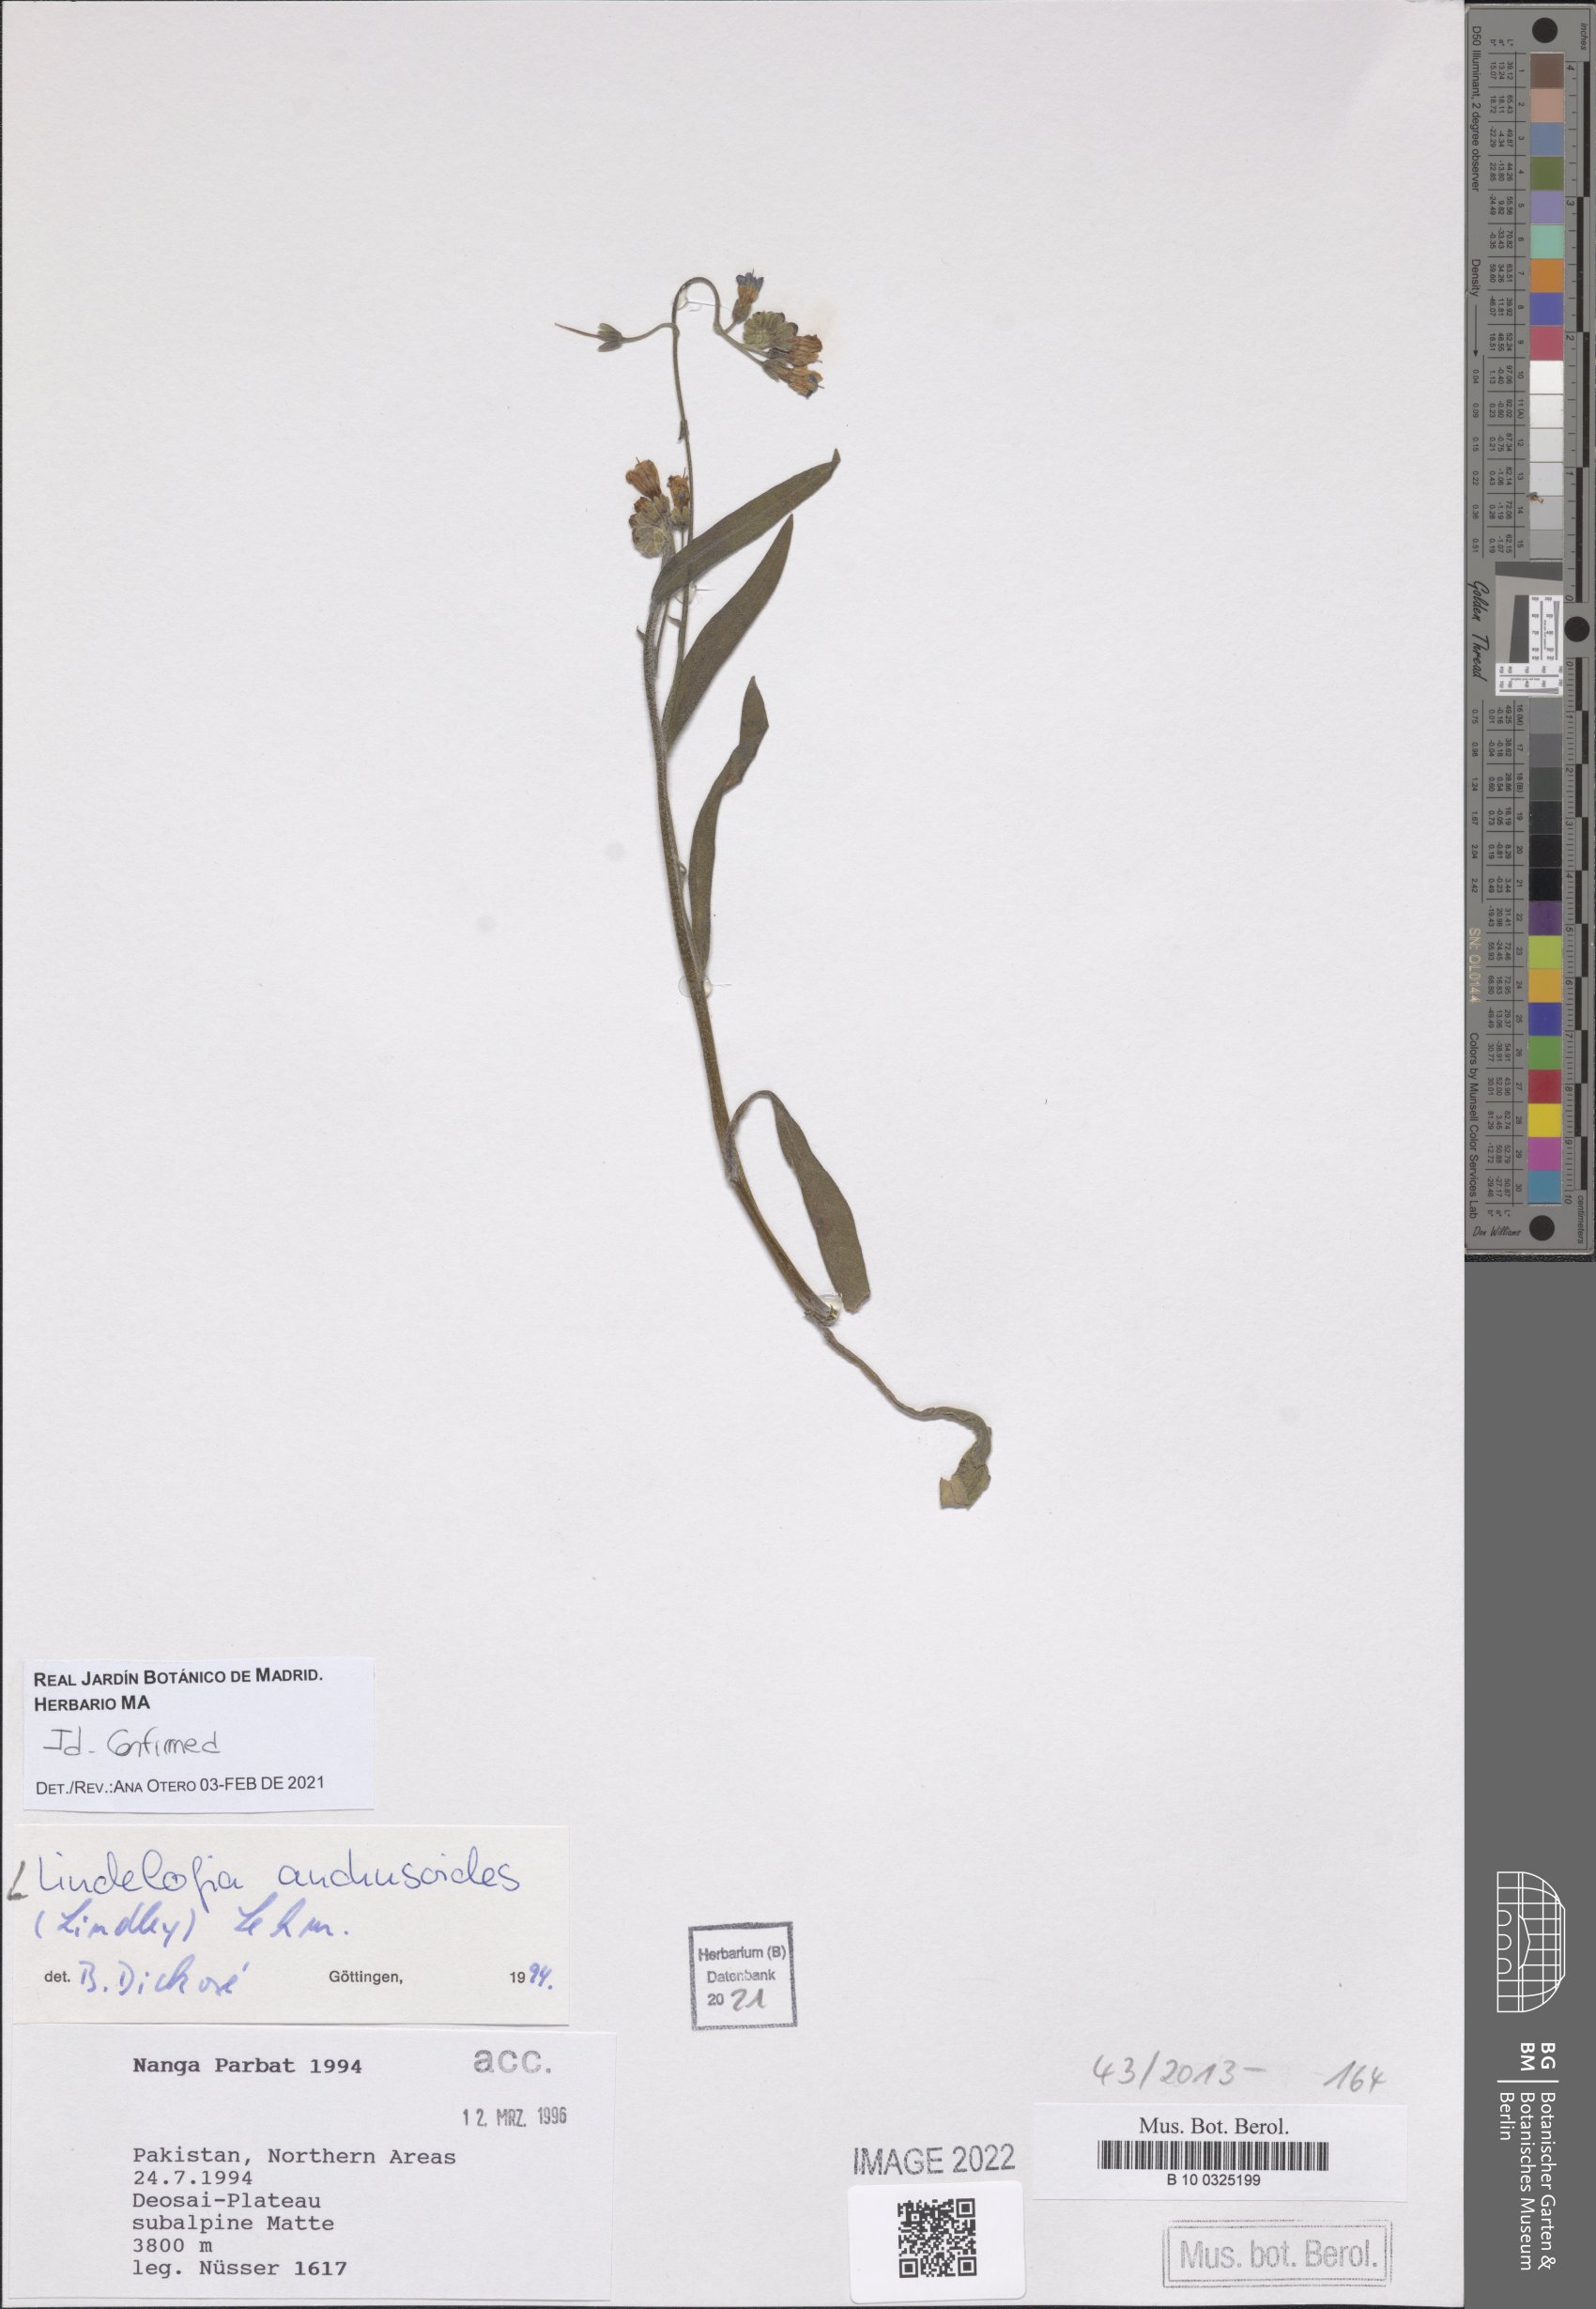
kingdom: Plantae
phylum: Tracheophyta
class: Magnoliopsida
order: Boraginales
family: Boraginaceae
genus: Lindelofia
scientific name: Lindelofia anchusoides
